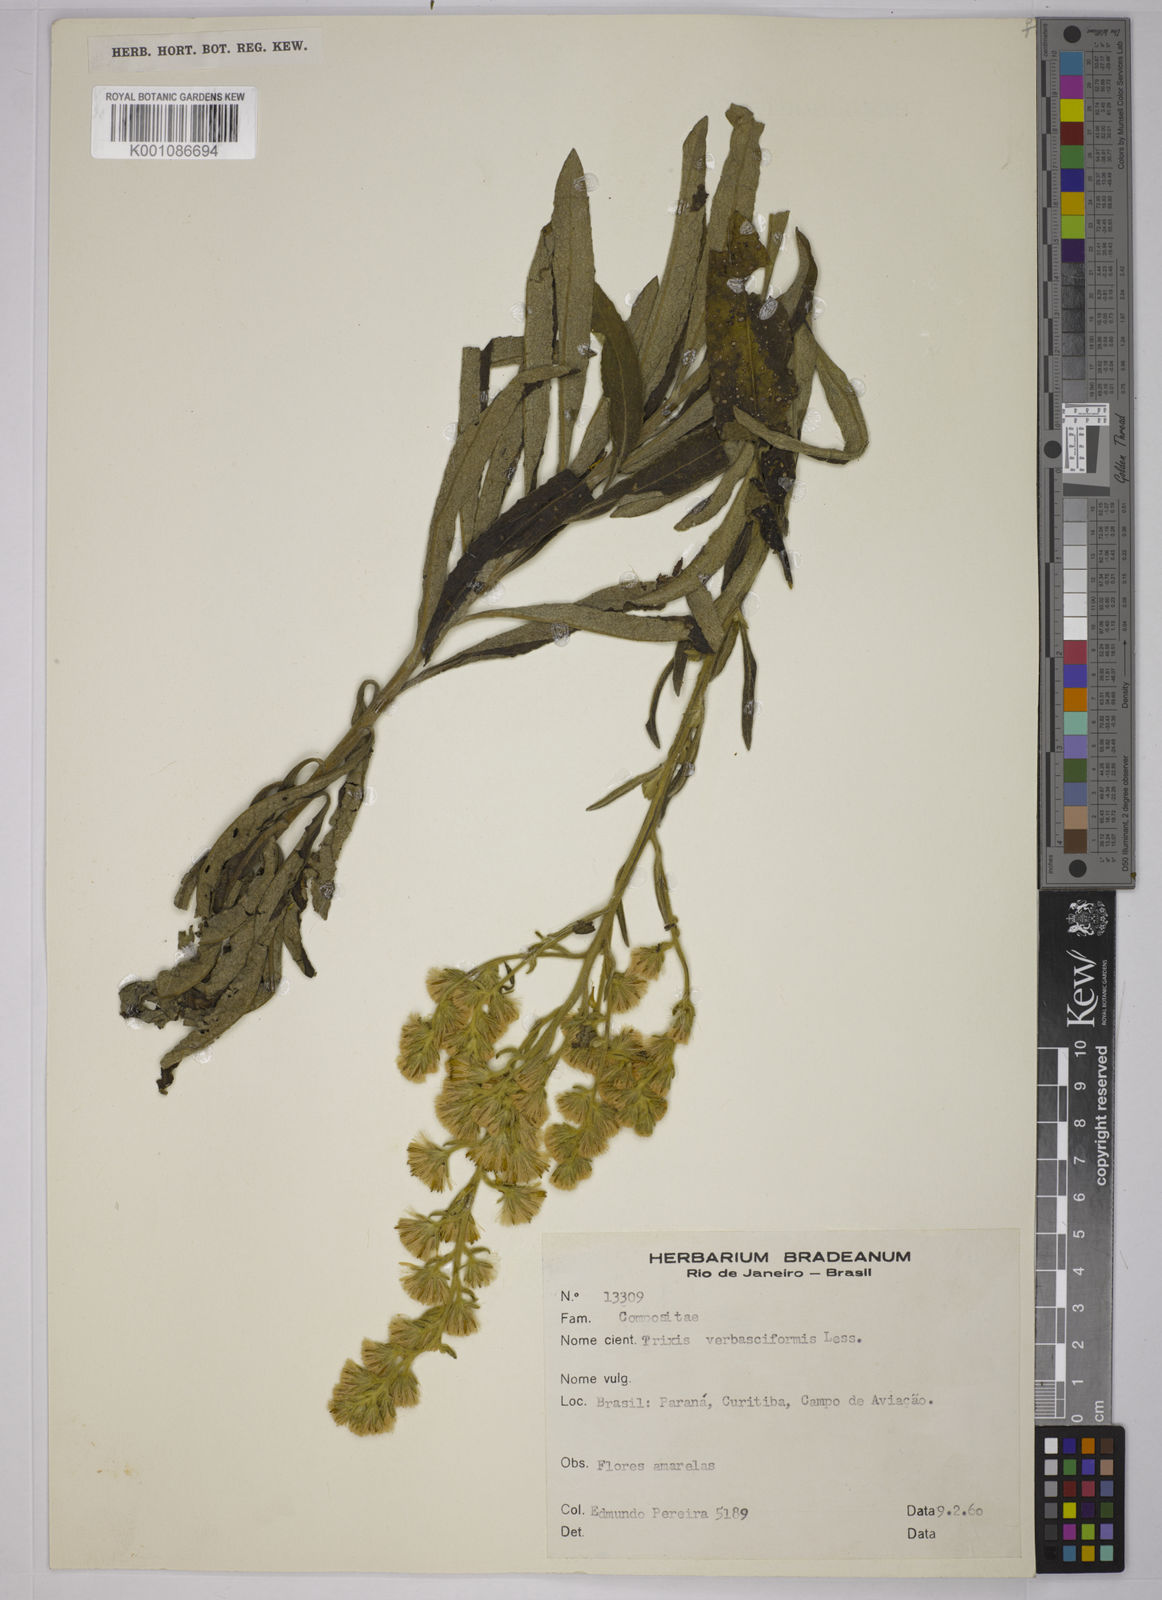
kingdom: Plantae
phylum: Tracheophyta
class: Magnoliopsida
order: Asterales
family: Asteraceae
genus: Trixis
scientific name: Trixis nobilis
